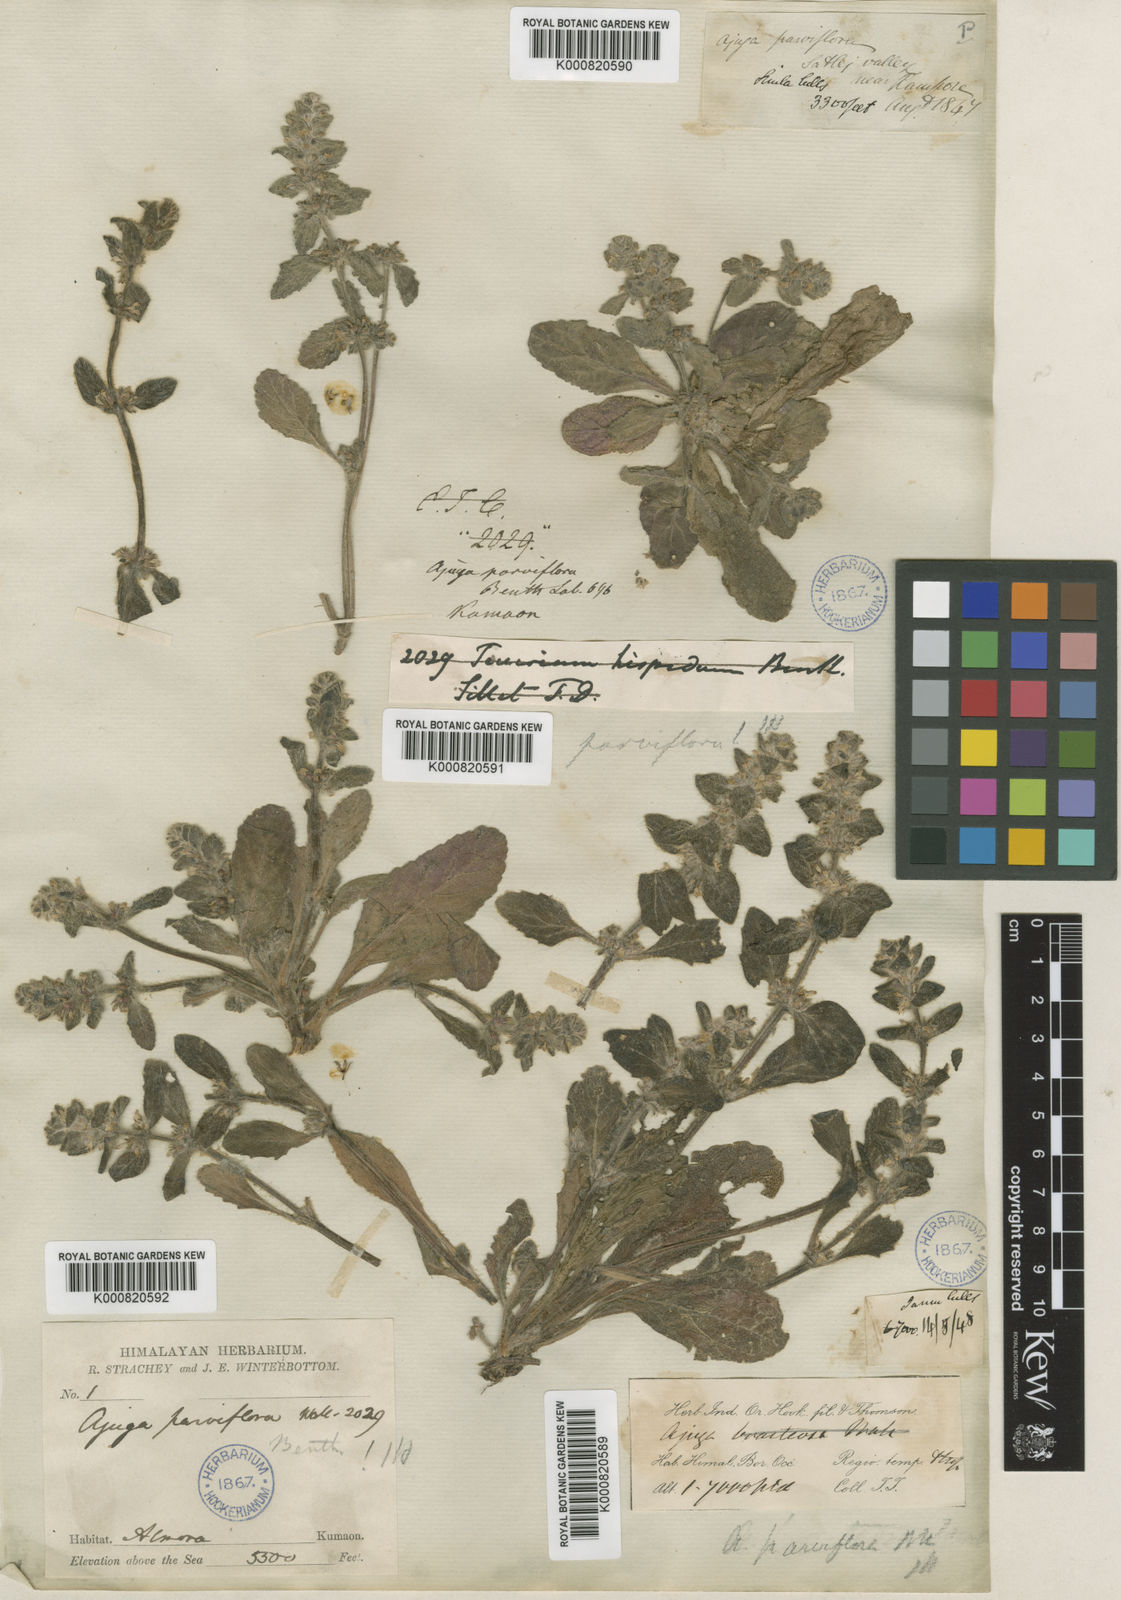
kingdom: Plantae
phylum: Tracheophyta
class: Magnoliopsida
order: Lamiales
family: Lamiaceae
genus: Ajuga
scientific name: Ajuga parviflora
